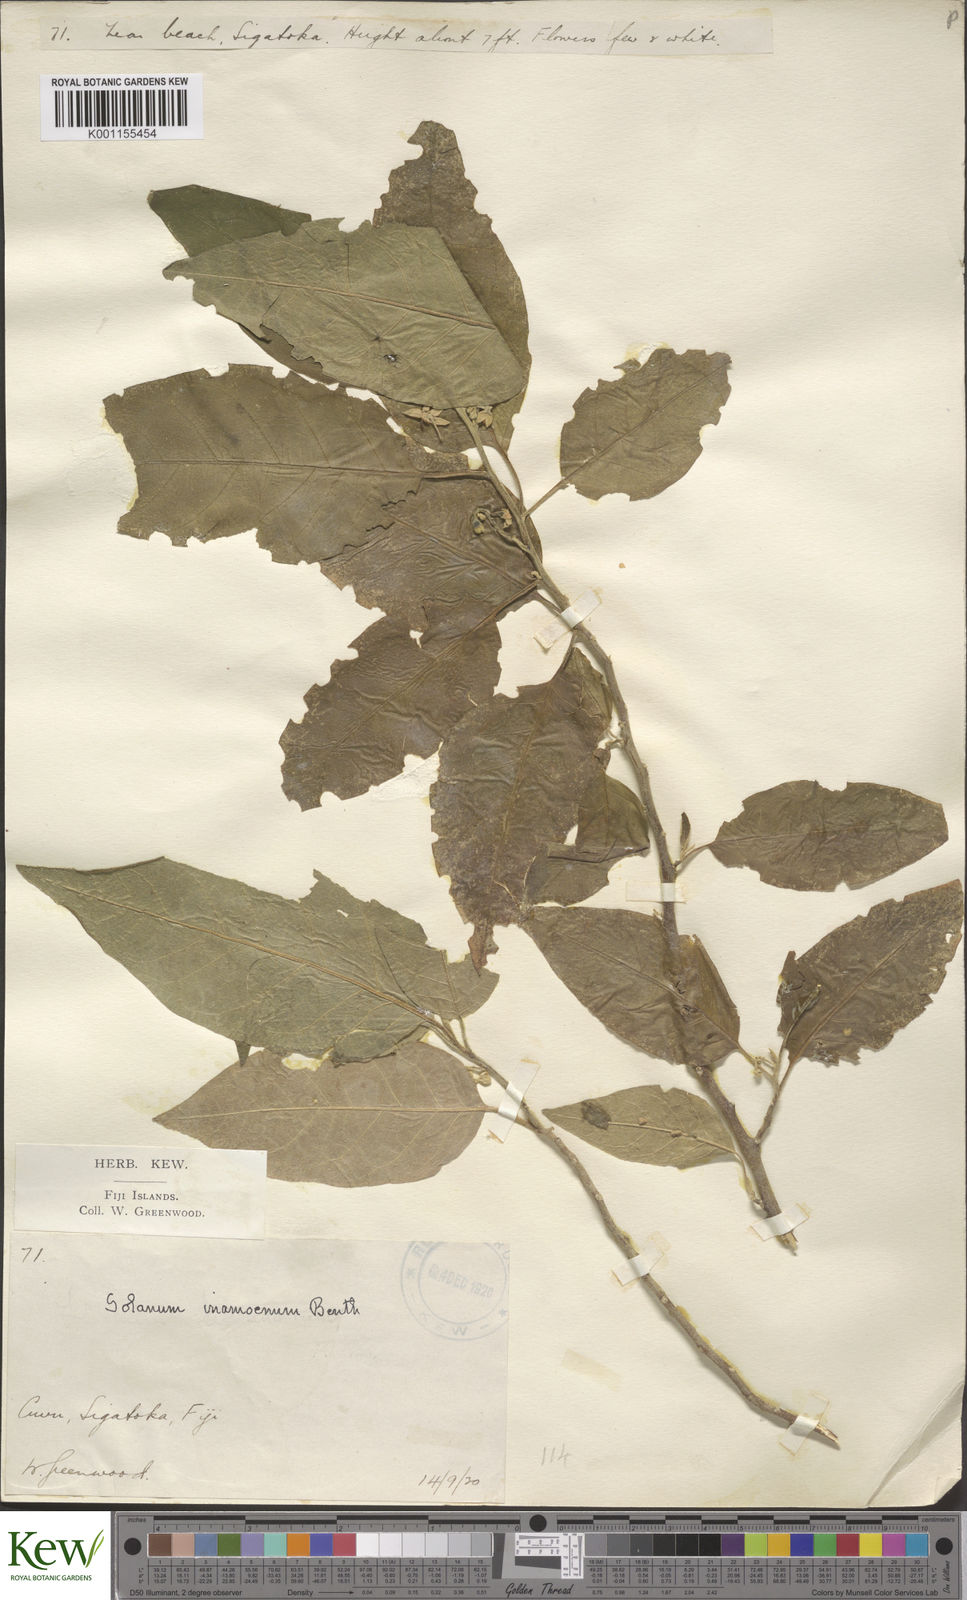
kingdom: Plantae
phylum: Tracheophyta
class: Magnoliopsida
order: Solanales
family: Solanaceae
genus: Solanum
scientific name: Solanum inamoenum
